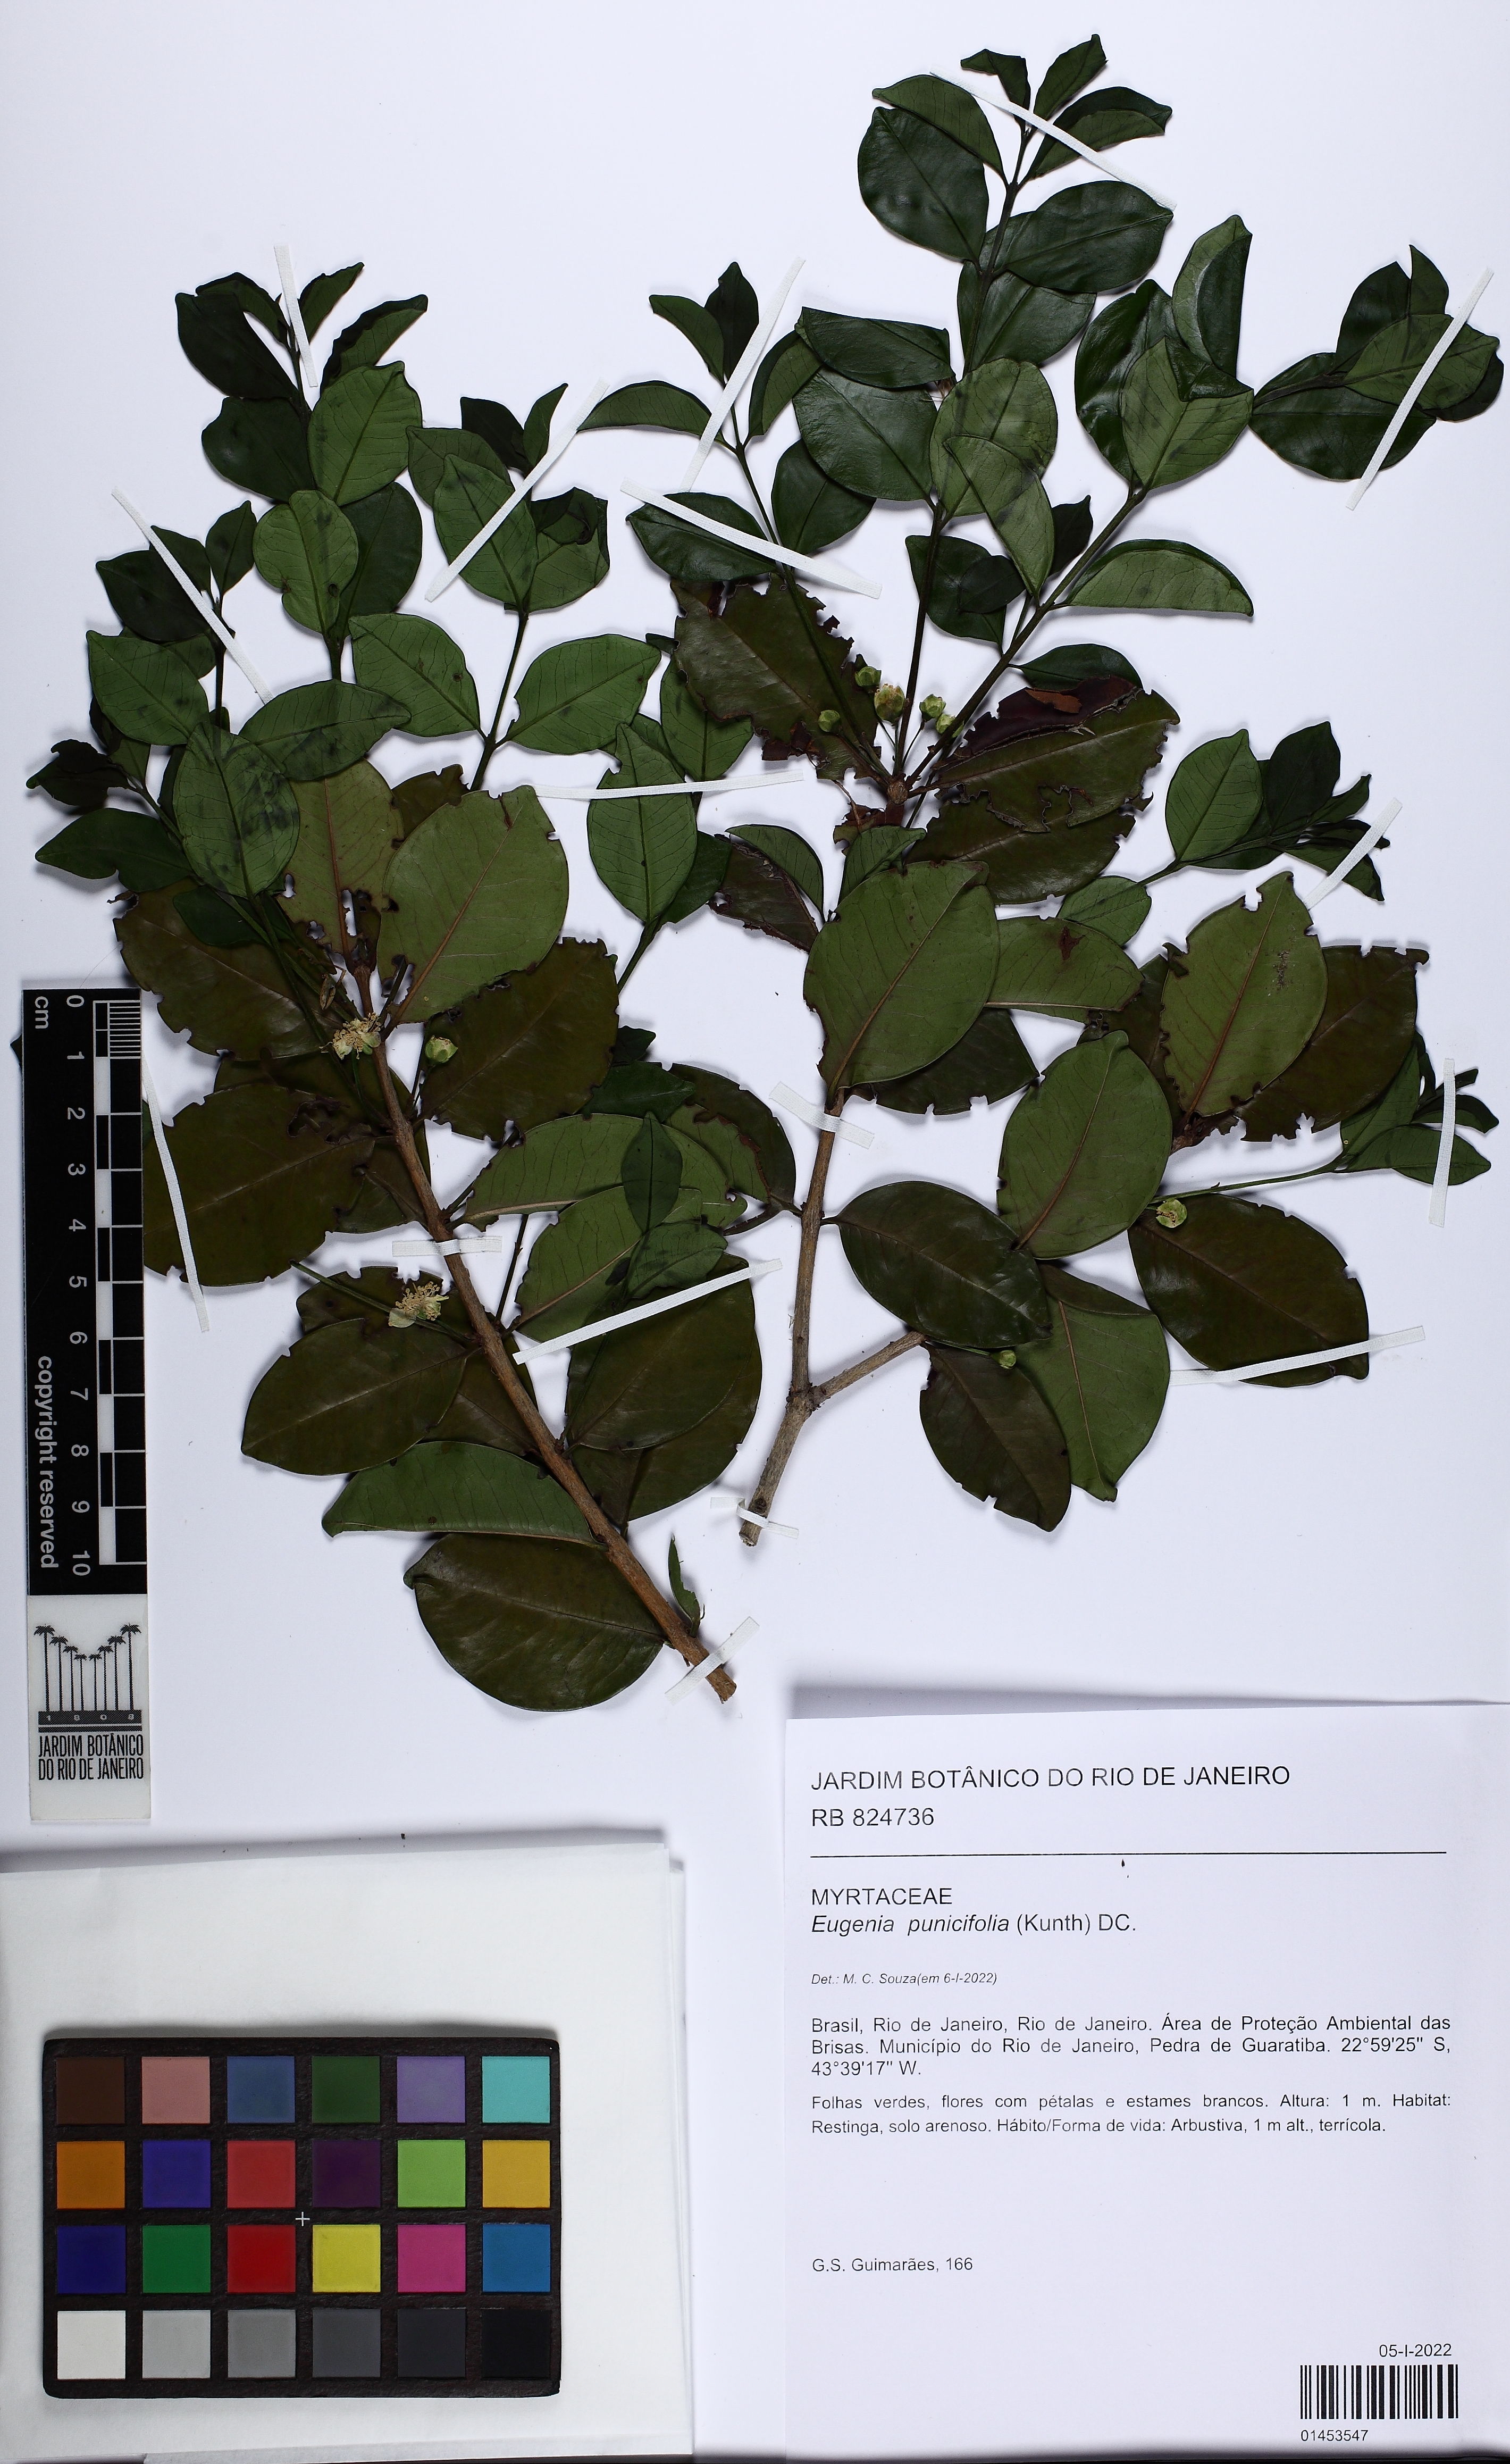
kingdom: Plantae
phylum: Tracheophyta
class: Magnoliopsida
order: Myrtales
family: Myrtaceae
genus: Eugenia
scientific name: Eugenia punicifolia
